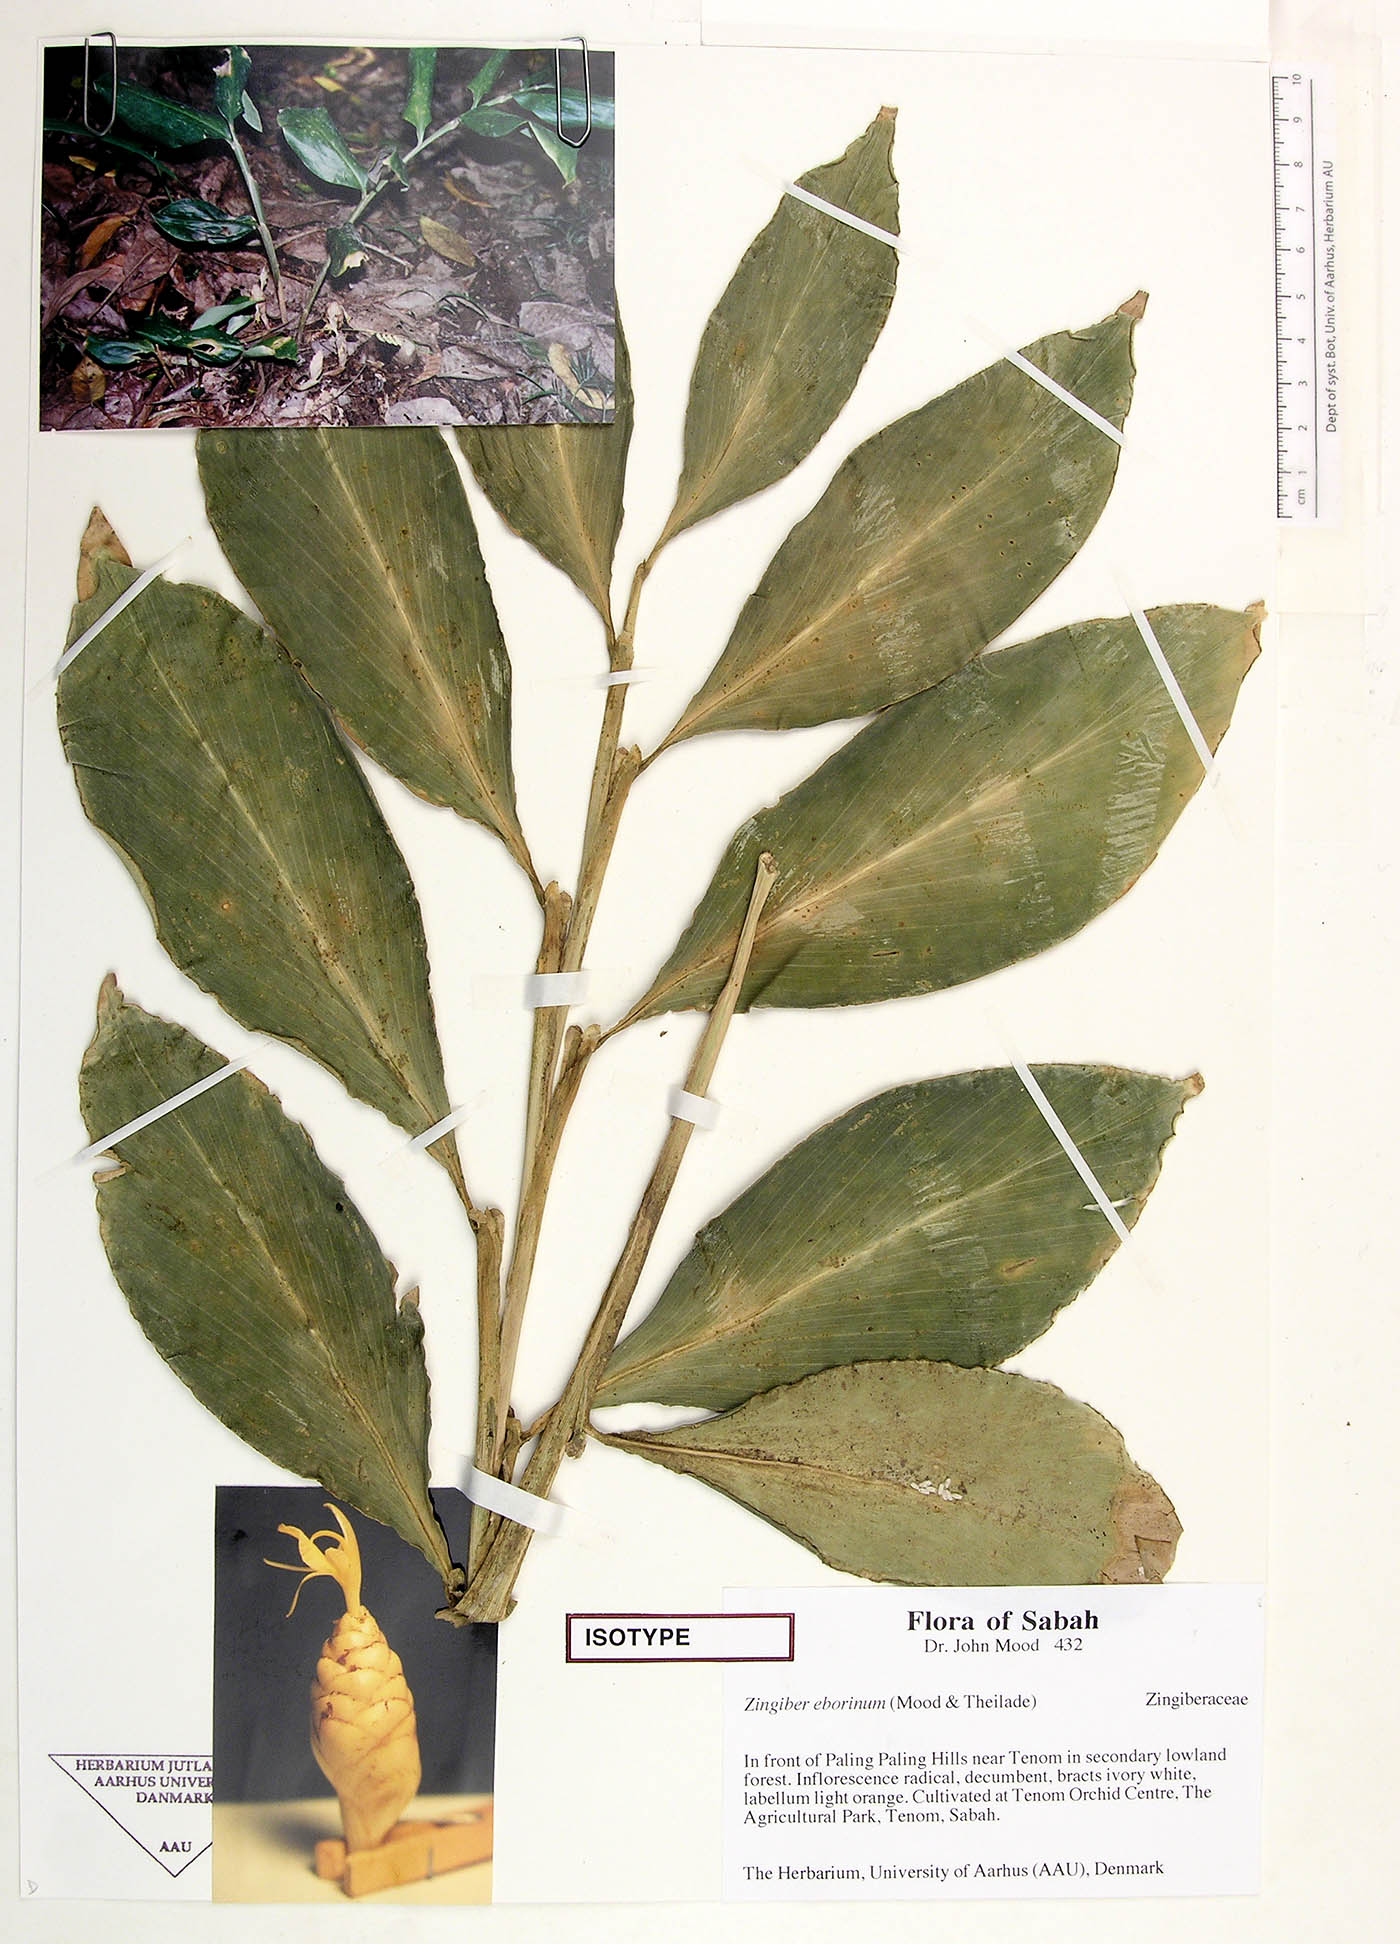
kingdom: Plantae
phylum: Tracheophyta
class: Liliopsida
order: Zingiberales
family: Zingiberaceae
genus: Zingiber
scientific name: Zingiber eborinum
